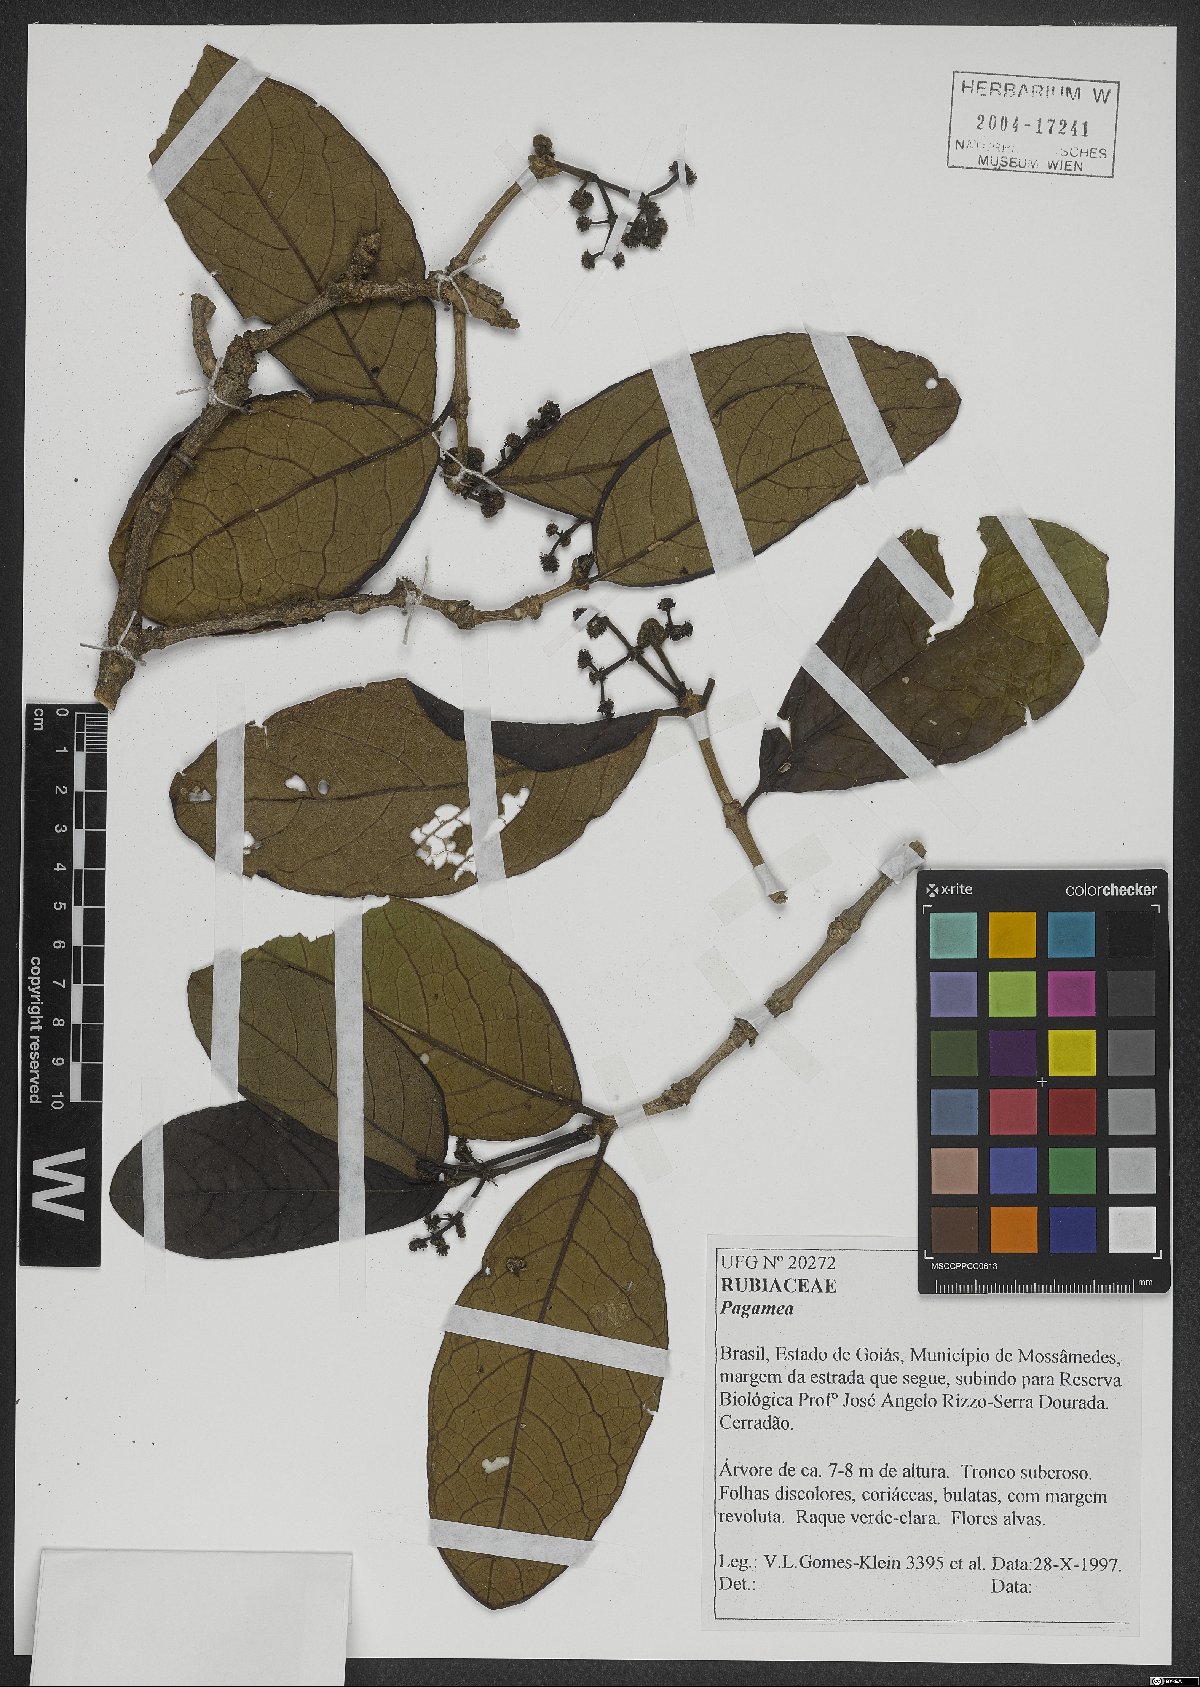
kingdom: Plantae
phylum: Tracheophyta
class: Magnoliopsida
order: Gentianales
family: Rubiaceae
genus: Pagamea
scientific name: Pagamea
